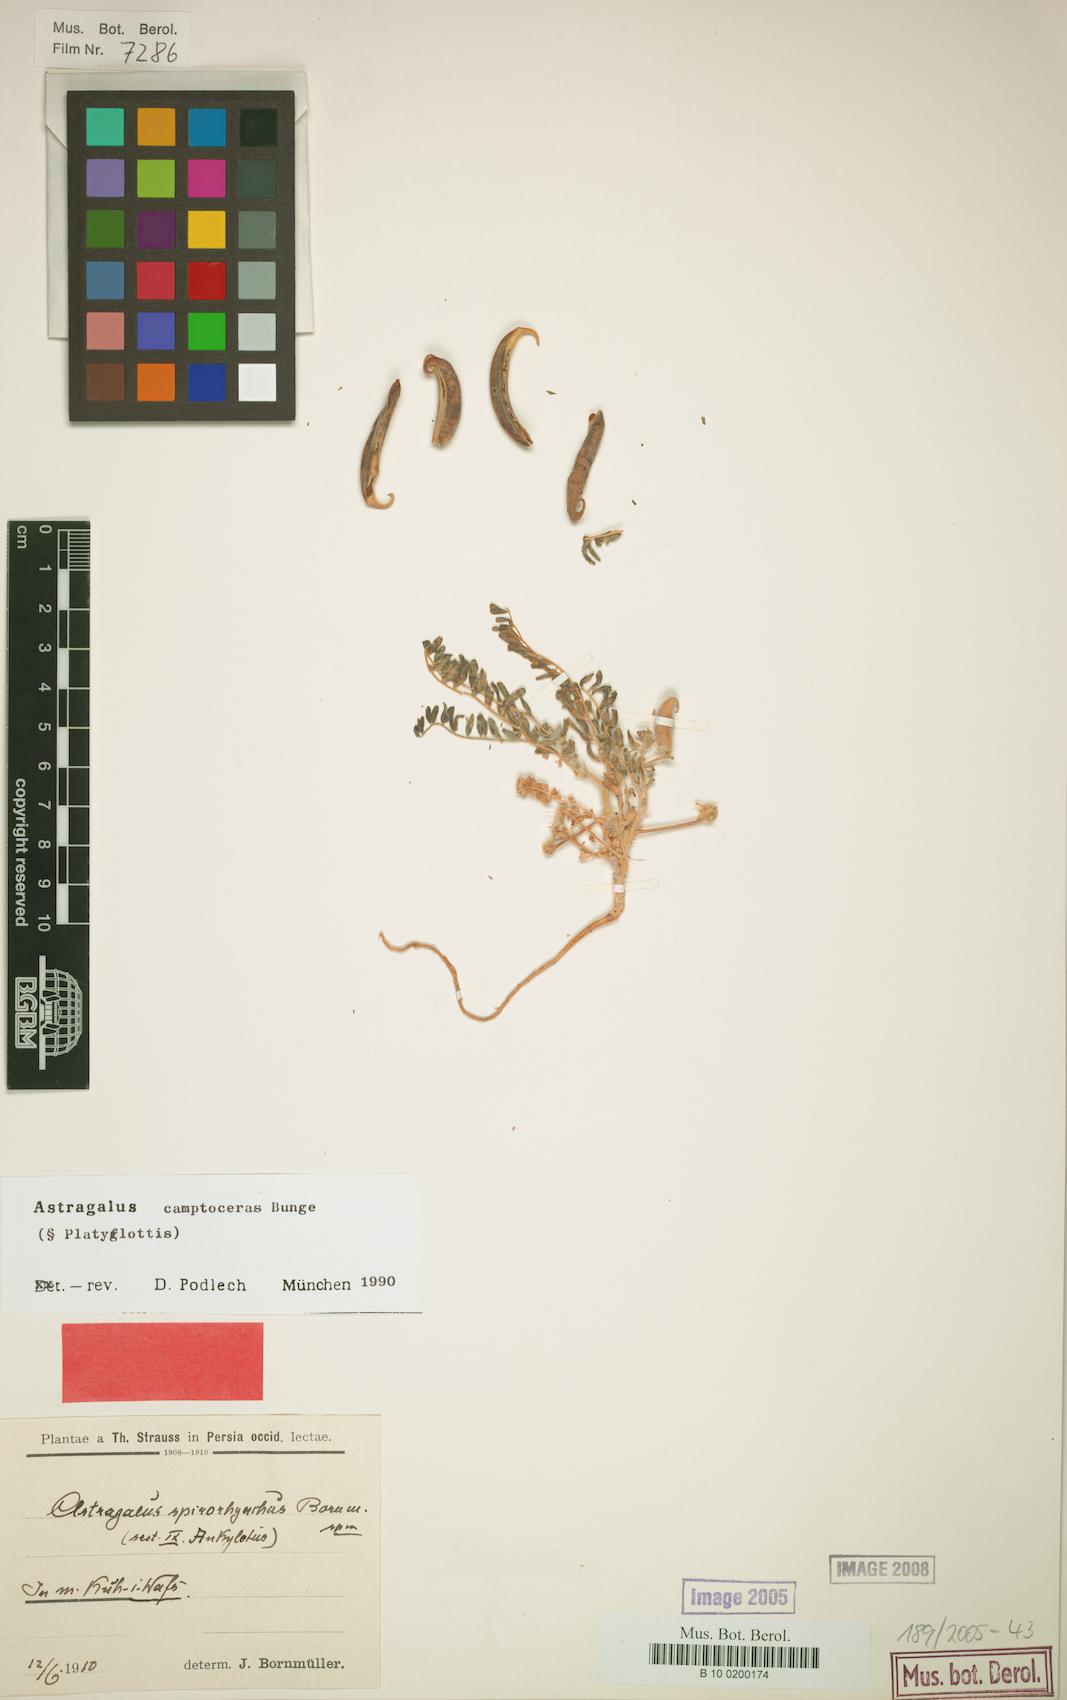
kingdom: Plantae
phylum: Tracheophyta
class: Magnoliopsida
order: Fabales
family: Fabaceae
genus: Astragalus
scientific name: Astragalus camptoceras
